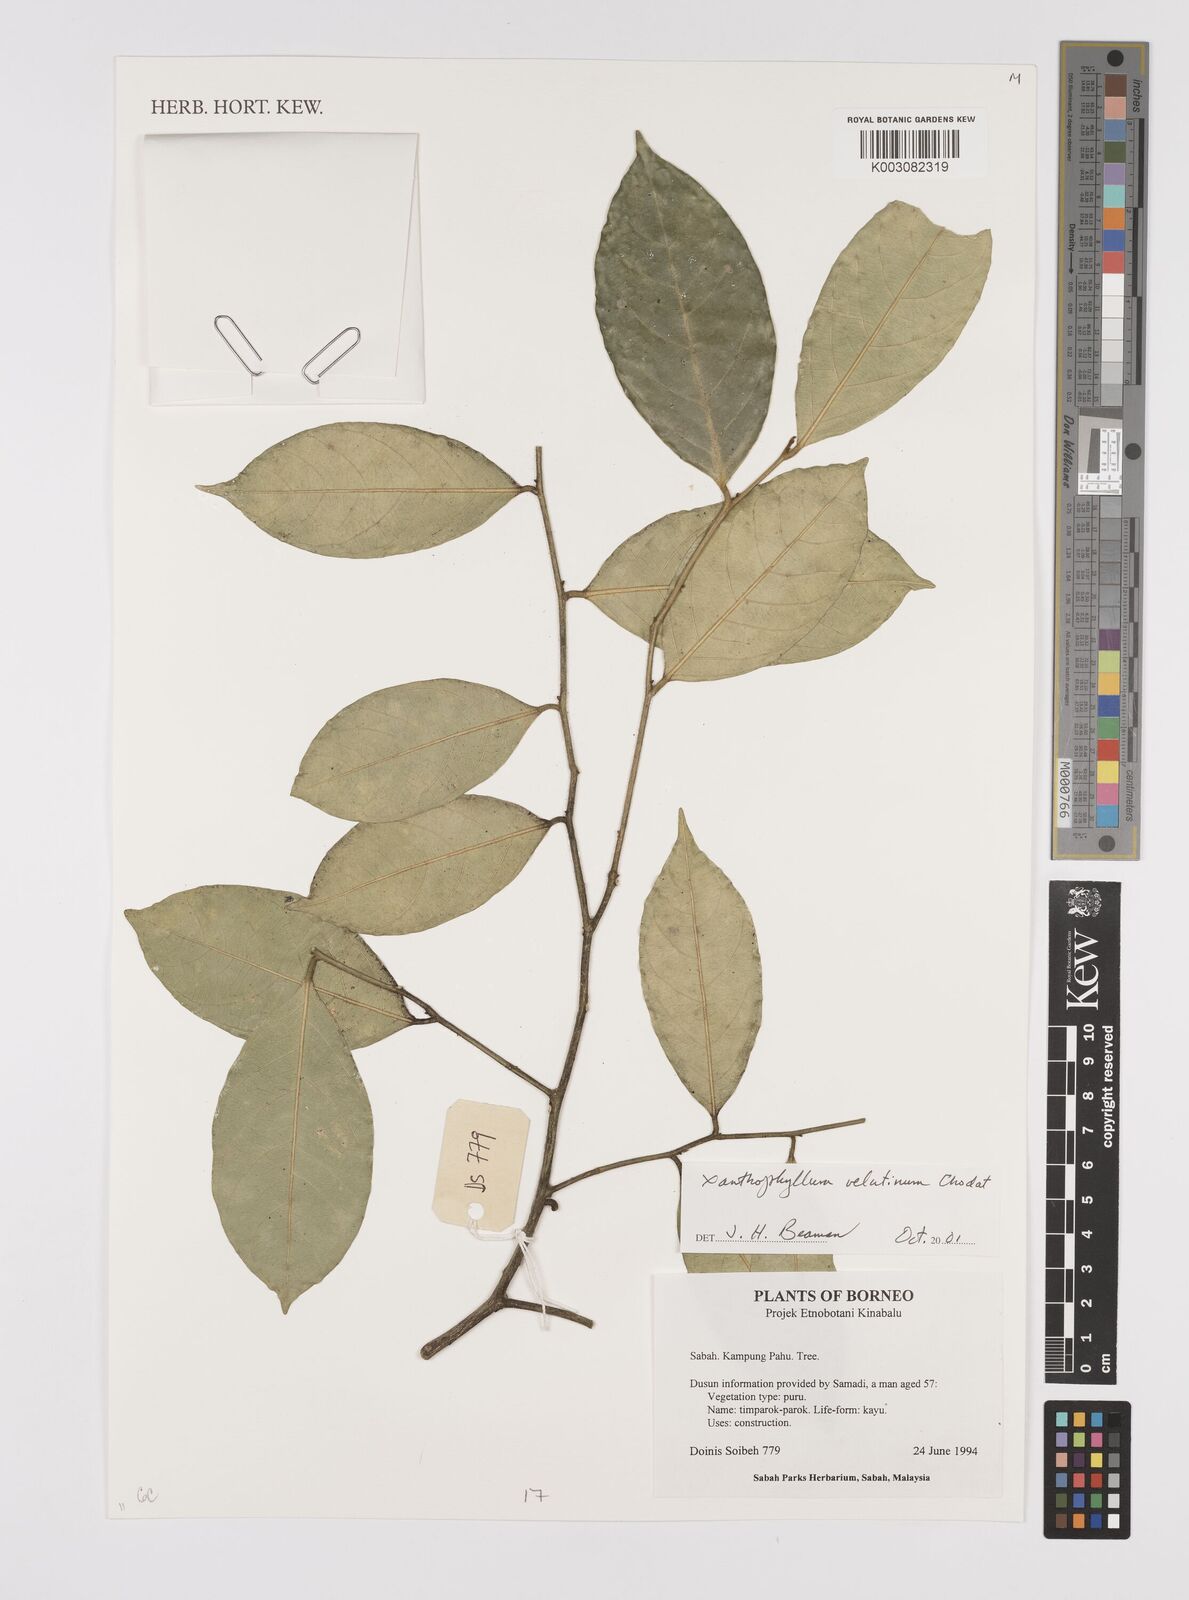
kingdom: Plantae
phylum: Tracheophyta
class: Magnoliopsida
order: Fabales
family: Polygalaceae
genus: Xanthophyllum
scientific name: Xanthophyllum velutinum
